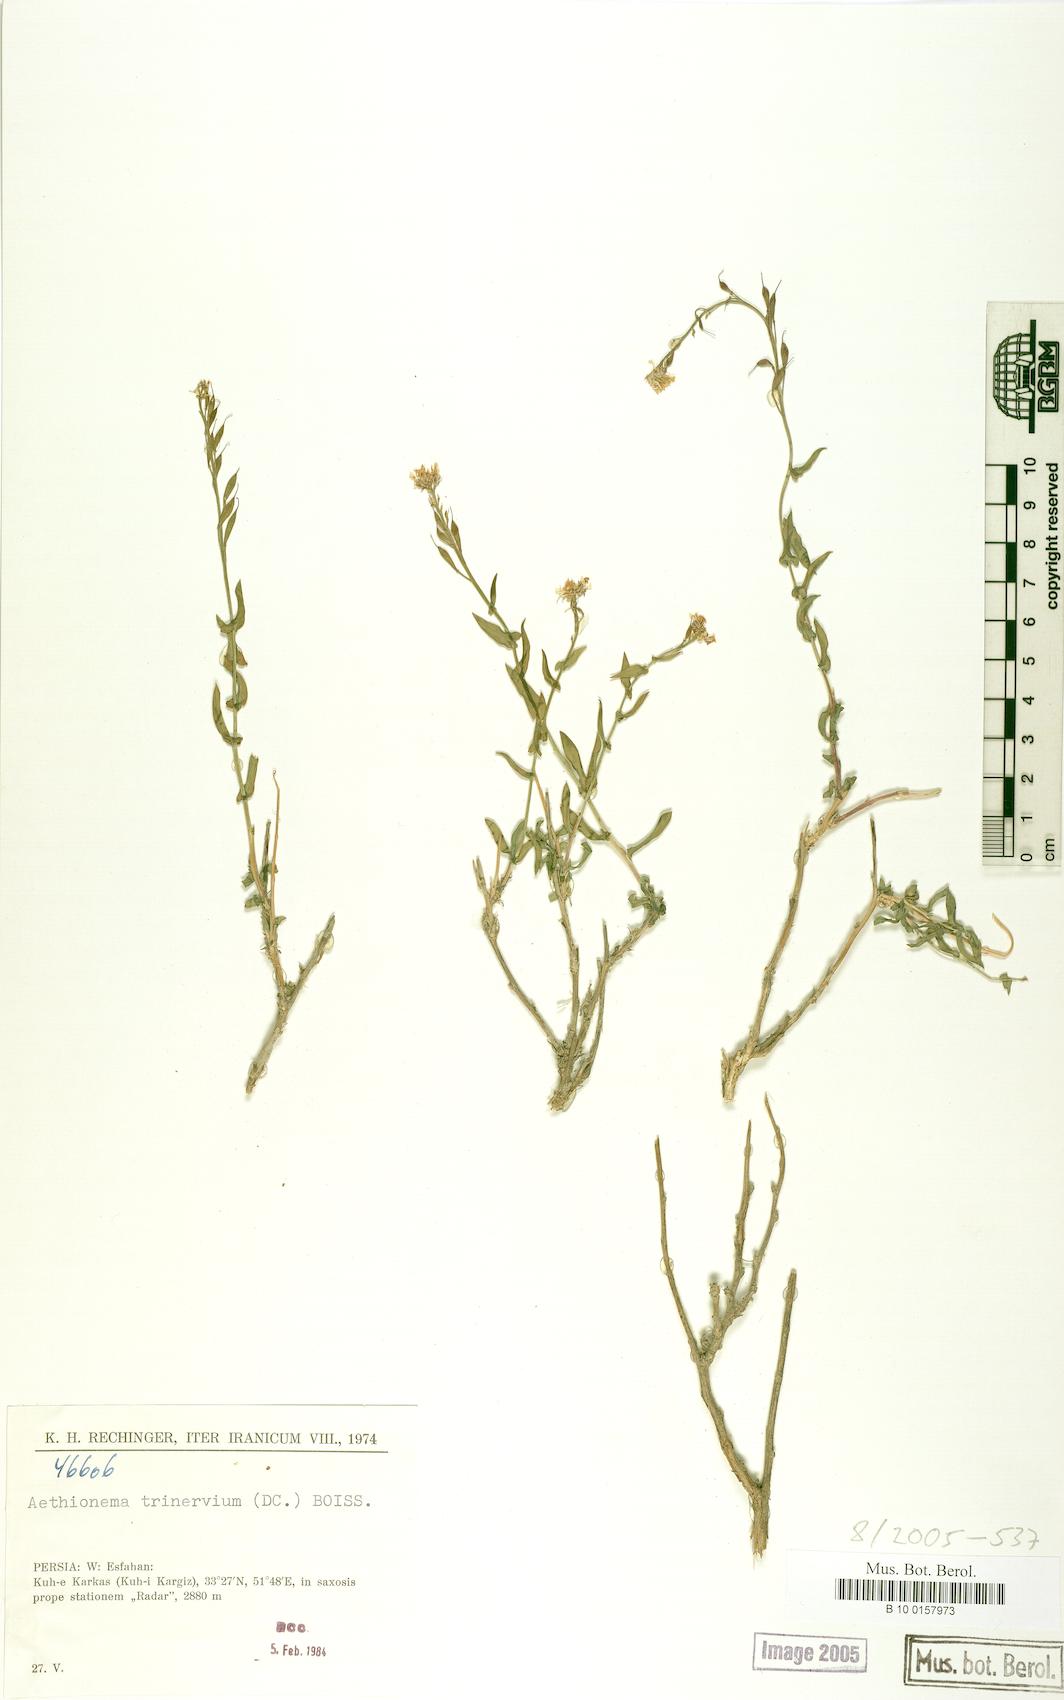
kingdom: Plantae
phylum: Tracheophyta
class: Magnoliopsida
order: Brassicales
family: Brassicaceae
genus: Noccaea
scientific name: Noccaea trinervia
